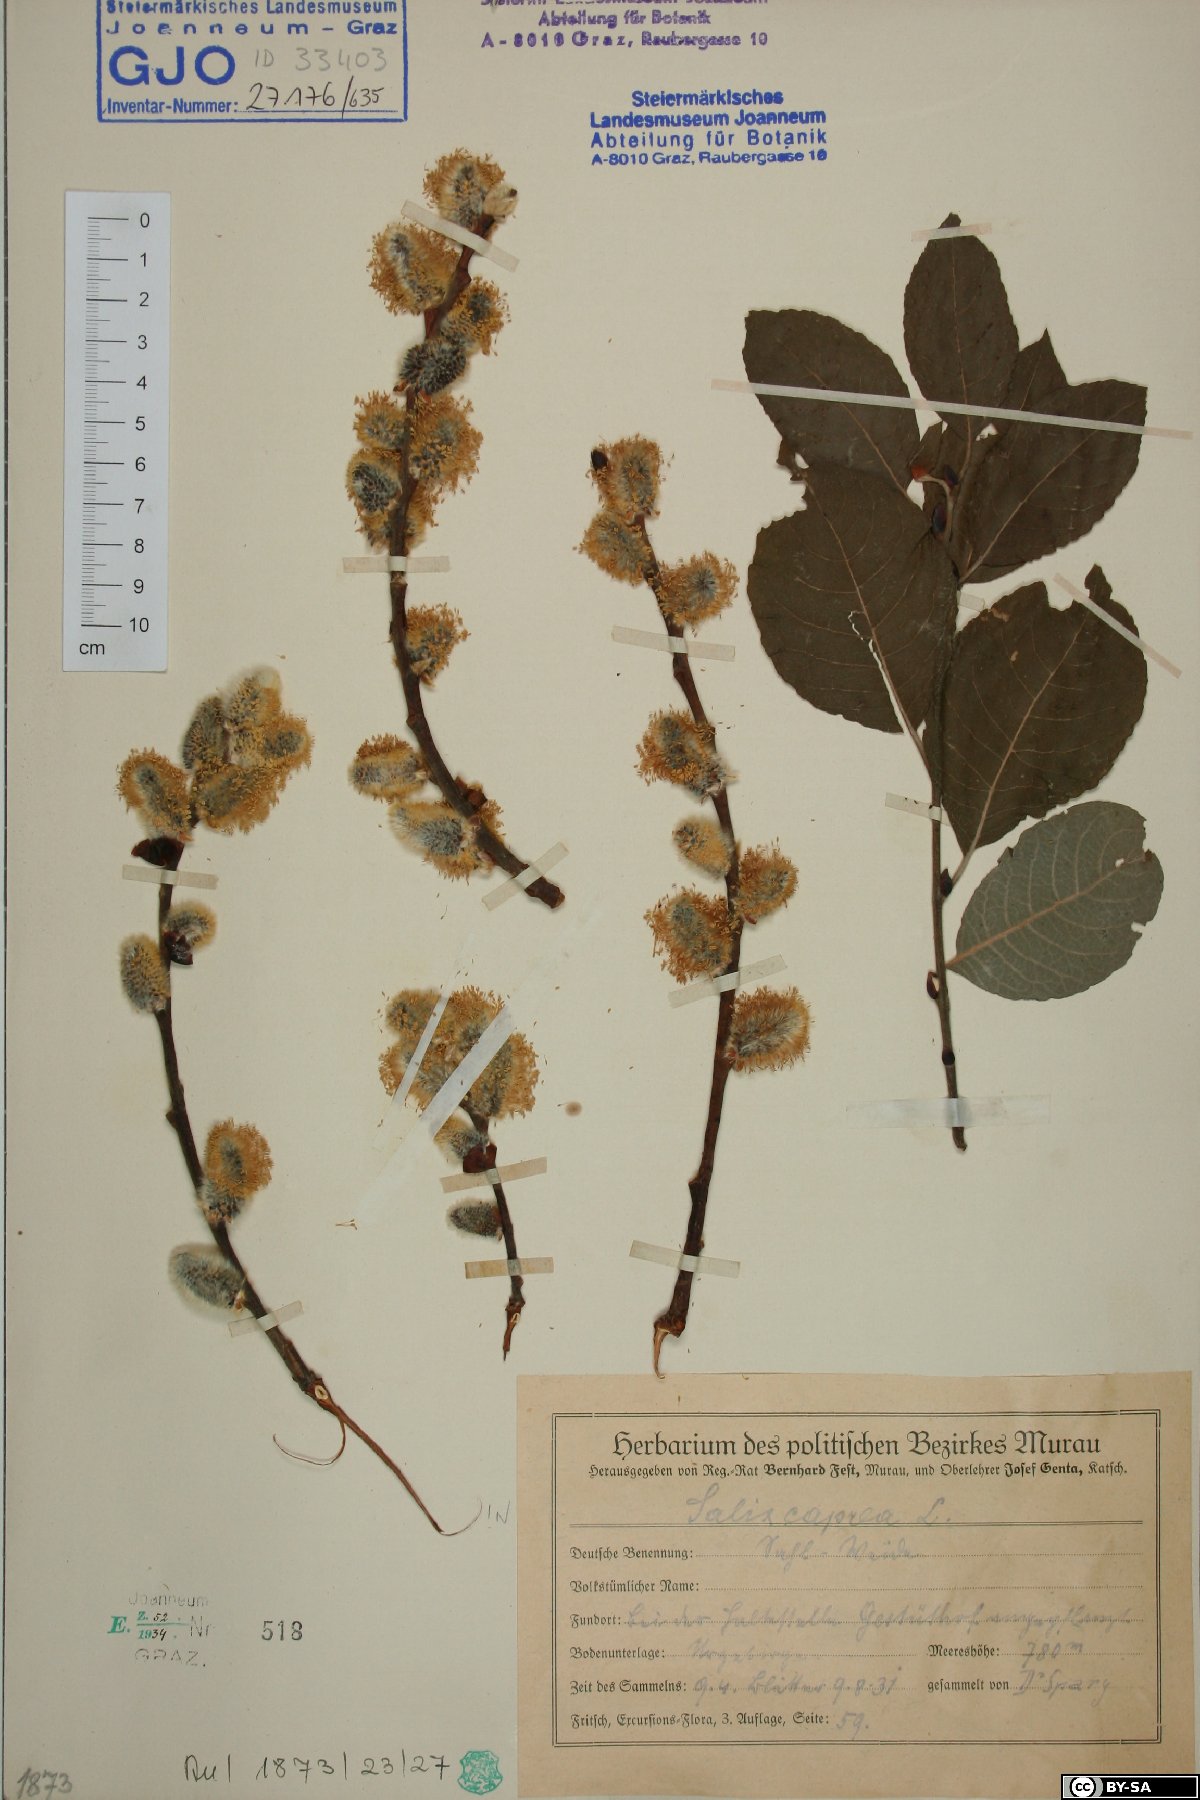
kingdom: Plantae
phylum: Tracheophyta
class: Magnoliopsida
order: Malpighiales
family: Salicaceae
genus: Salix
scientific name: Salix caprea
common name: Goat willow
